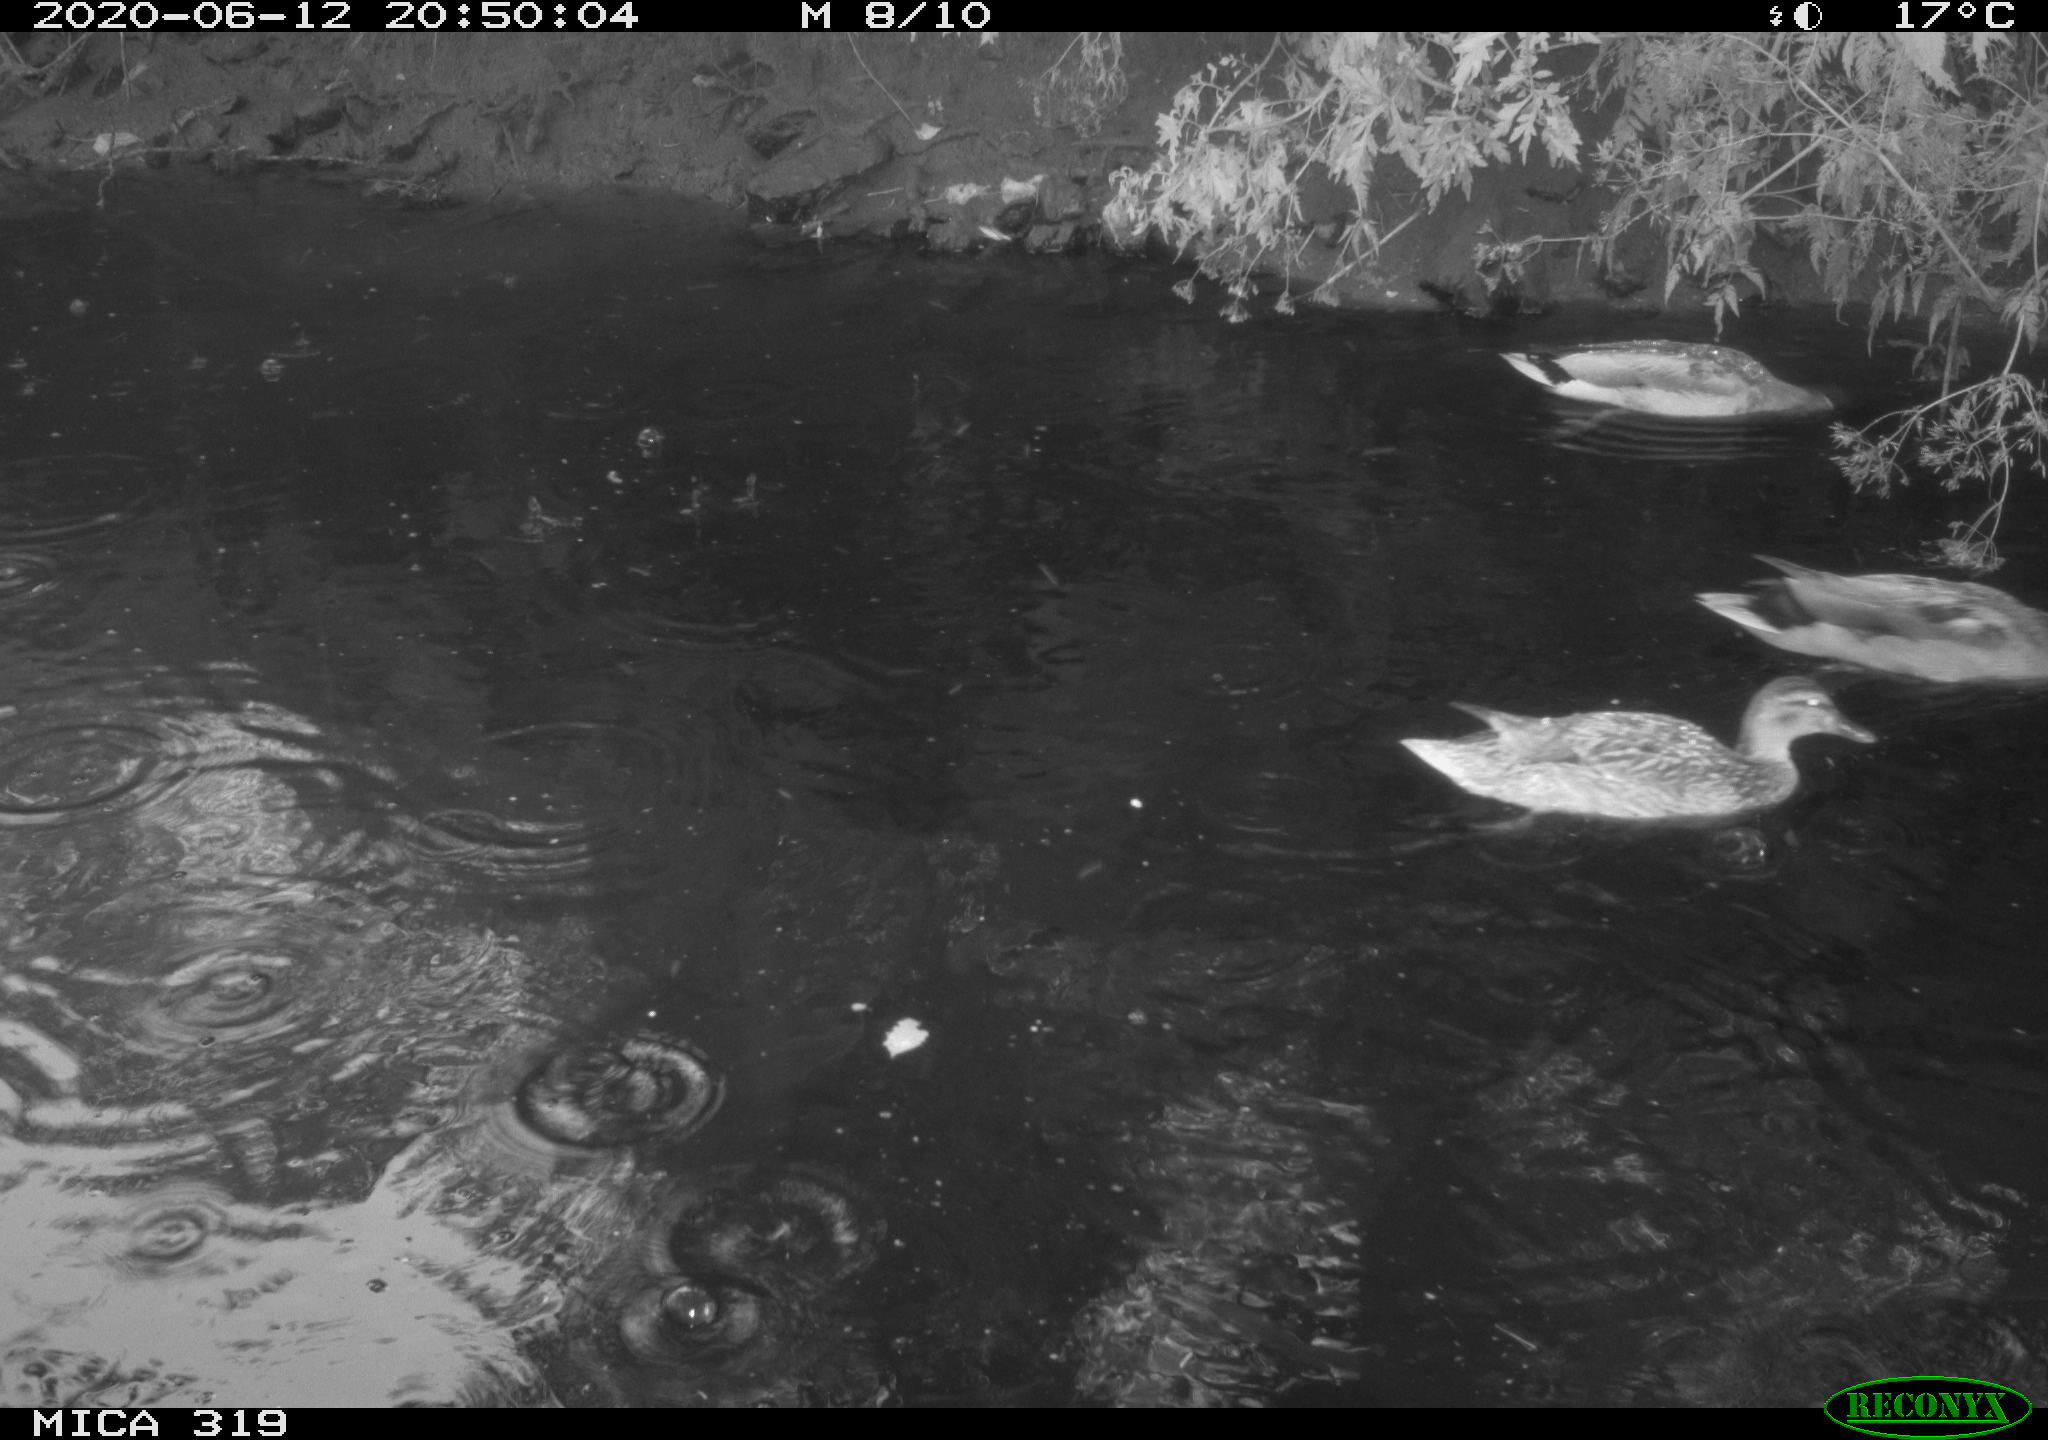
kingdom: Animalia
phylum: Chordata
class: Aves
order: Anseriformes
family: Anatidae
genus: Anas
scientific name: Anas platyrhynchos
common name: Mallard
